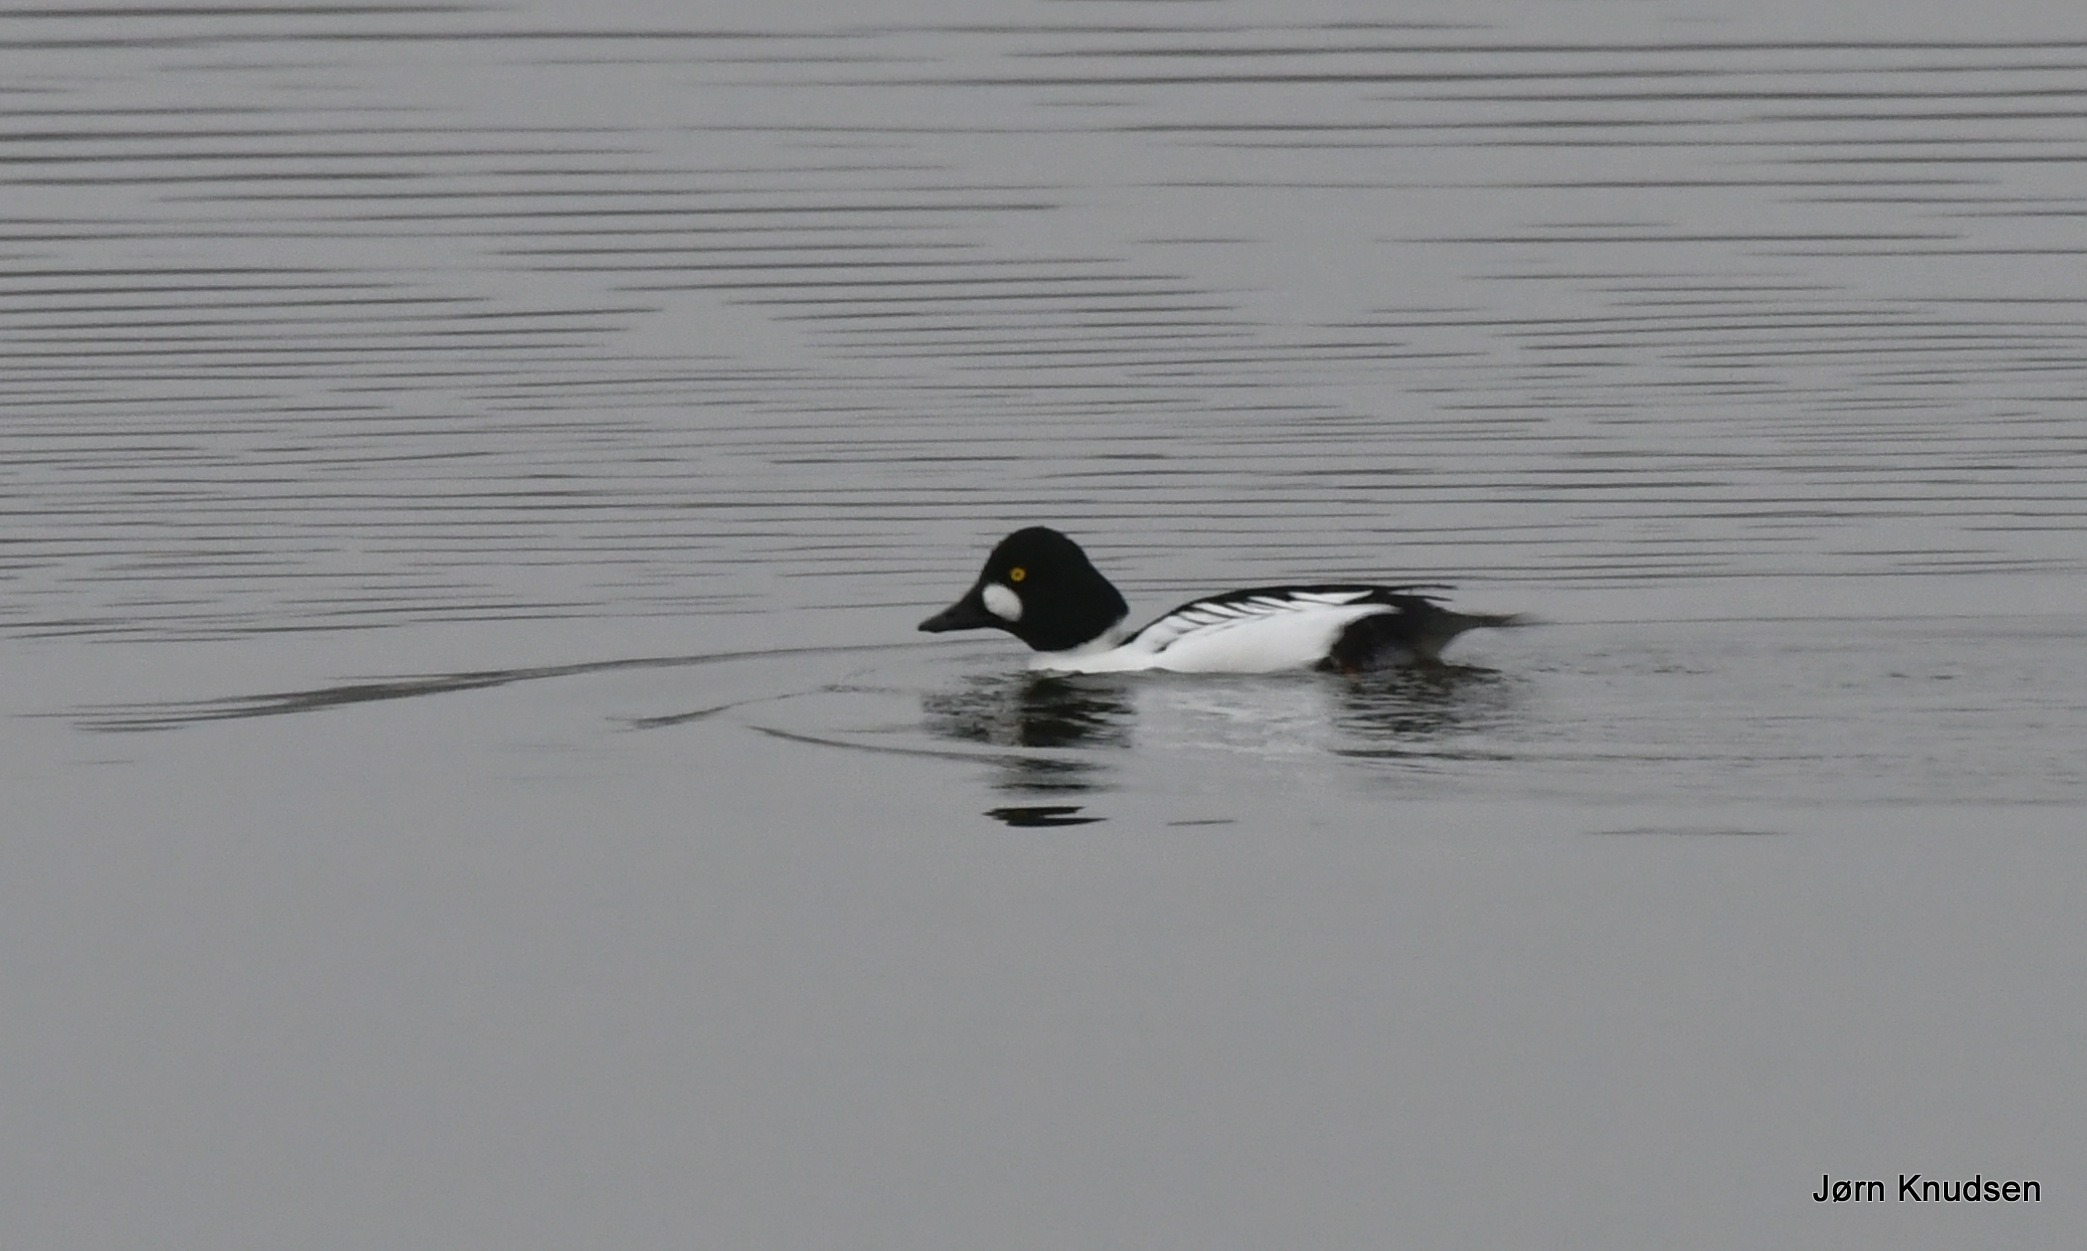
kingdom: Animalia
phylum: Chordata
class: Aves
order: Anseriformes
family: Anatidae
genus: Bucephala
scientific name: Bucephala clangula
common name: Hvinand
